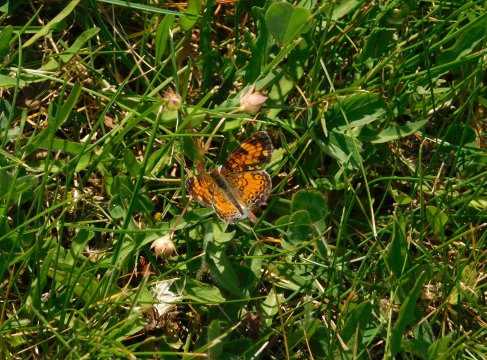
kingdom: Animalia
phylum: Arthropoda
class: Insecta
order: Lepidoptera
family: Nymphalidae
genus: Phyciodes
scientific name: Phyciodes tharos
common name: Northern Crescent
